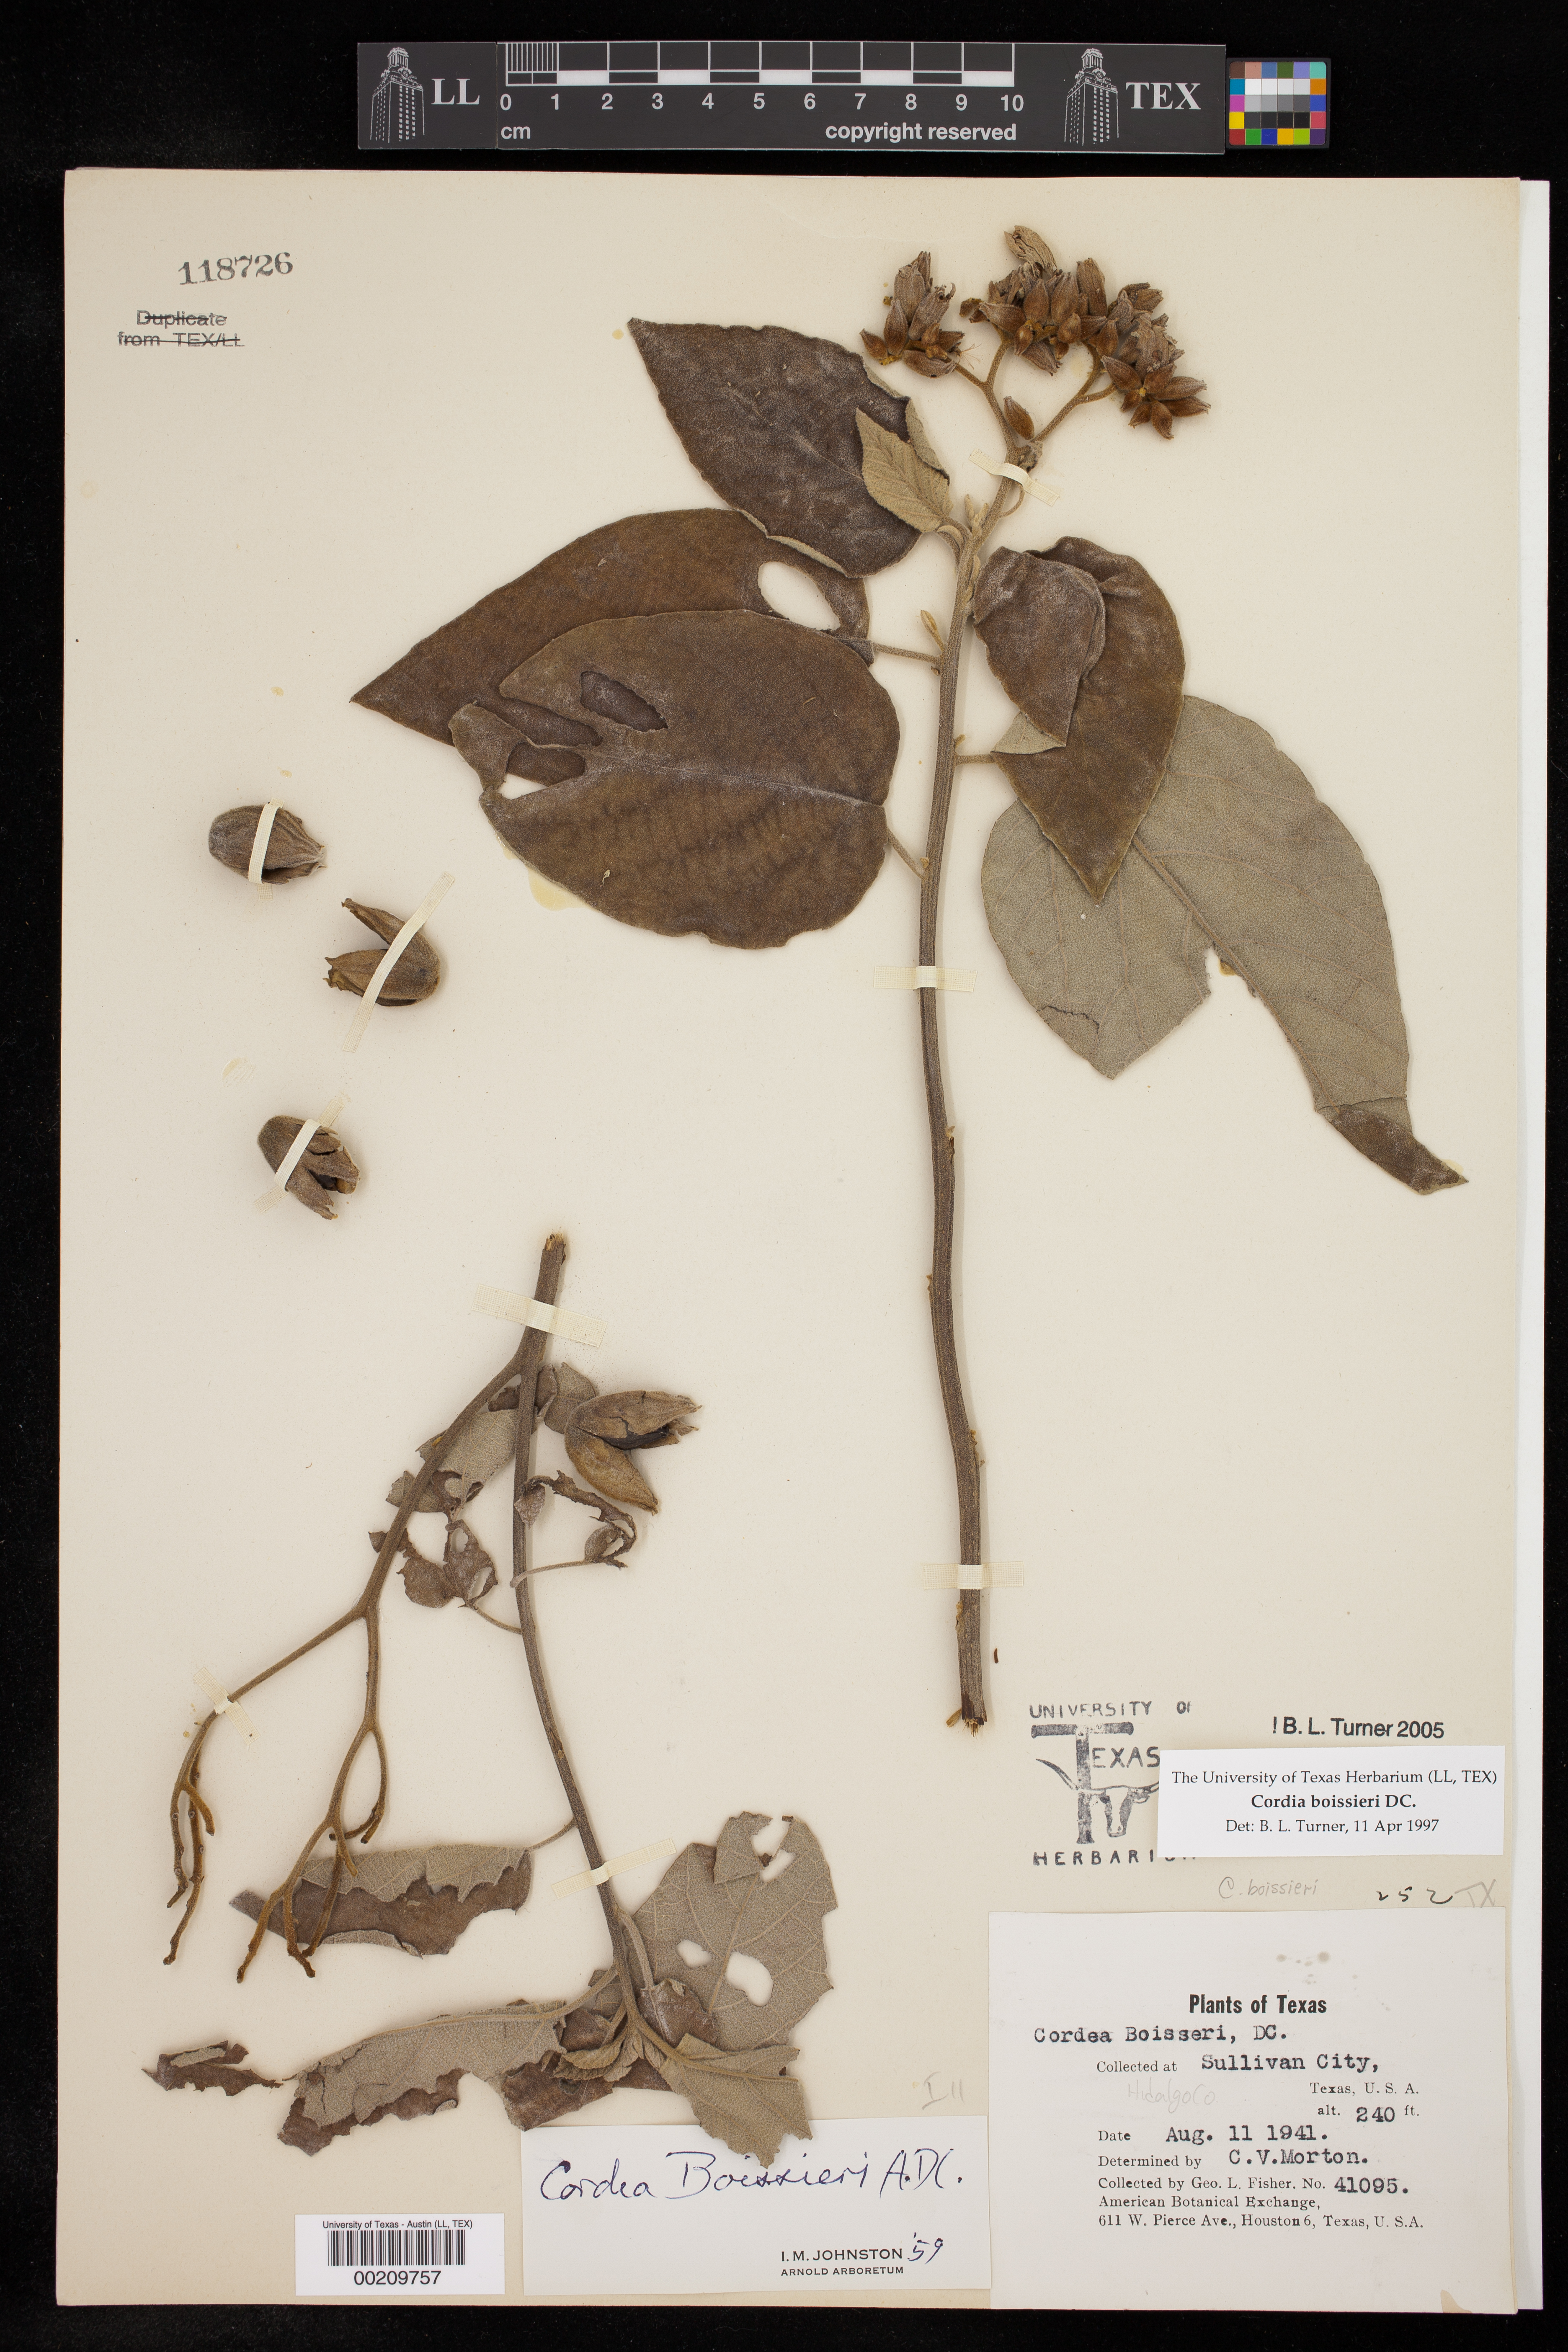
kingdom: Plantae
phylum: Tracheophyta
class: Magnoliopsida
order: Boraginales
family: Cordiaceae
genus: Cordia
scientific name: Cordia boissieri
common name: Mexican-olive
